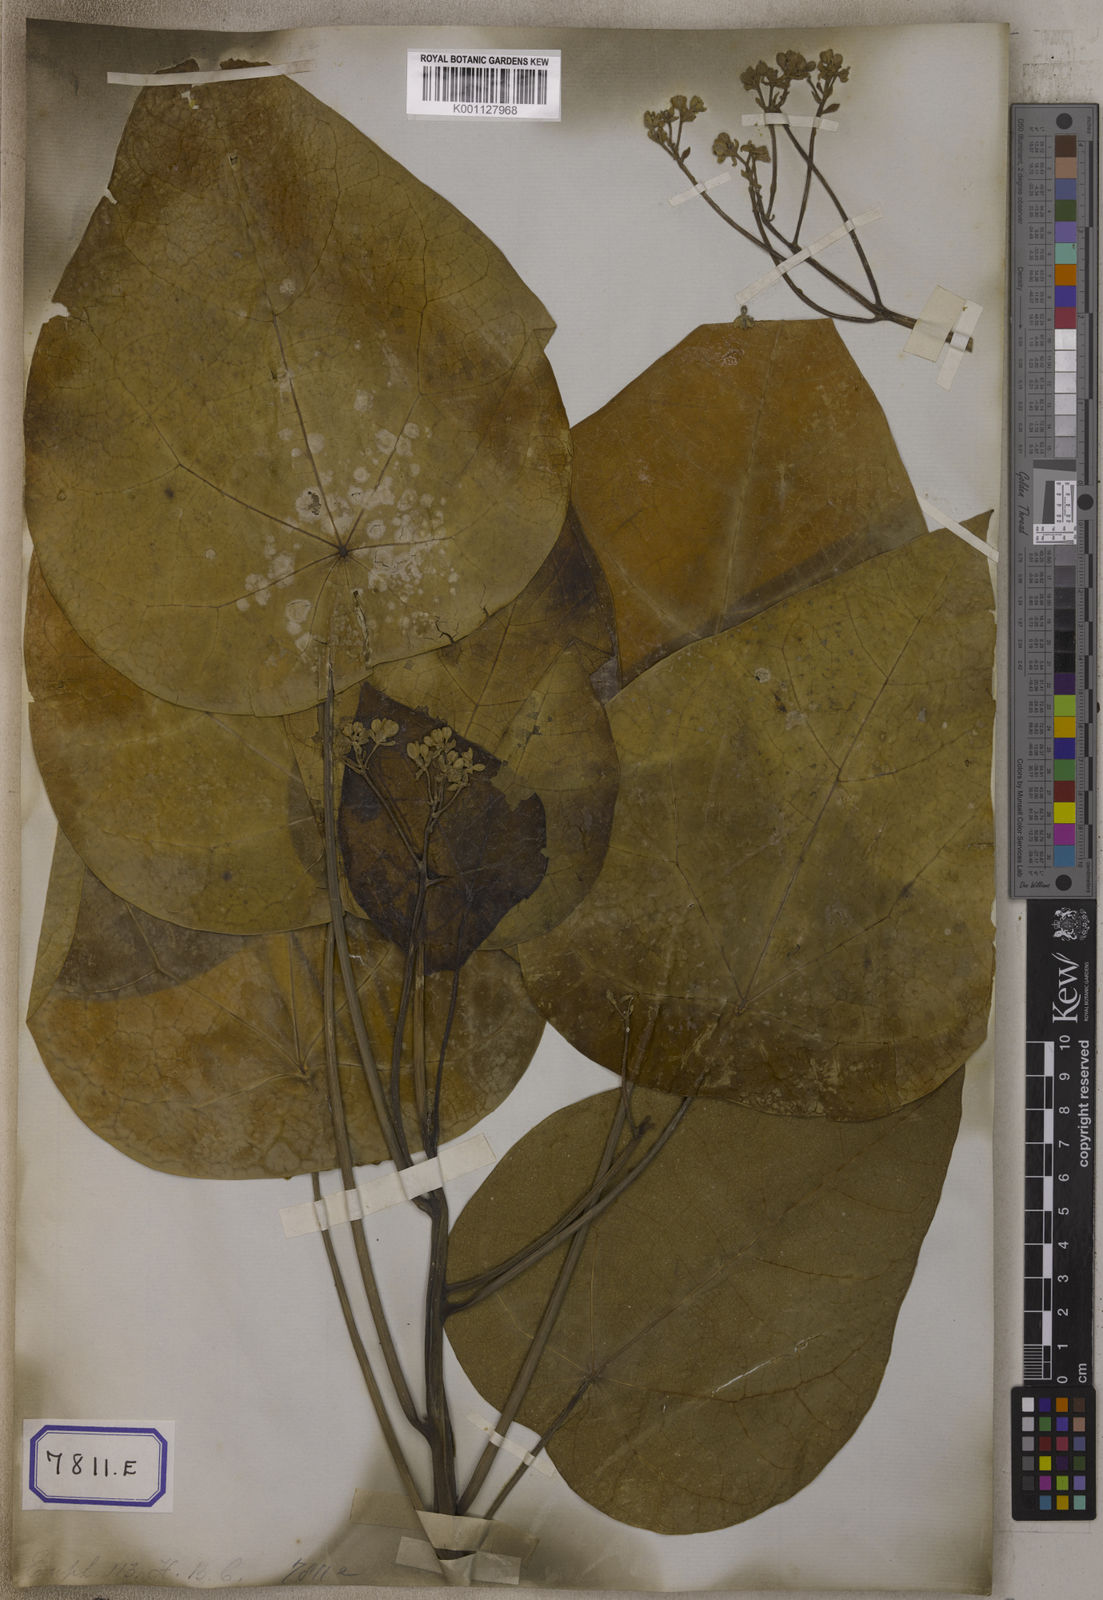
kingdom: Plantae
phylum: Tracheophyta
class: Magnoliopsida
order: Malpighiales
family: Euphorbiaceae
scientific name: Euphorbiaceae
